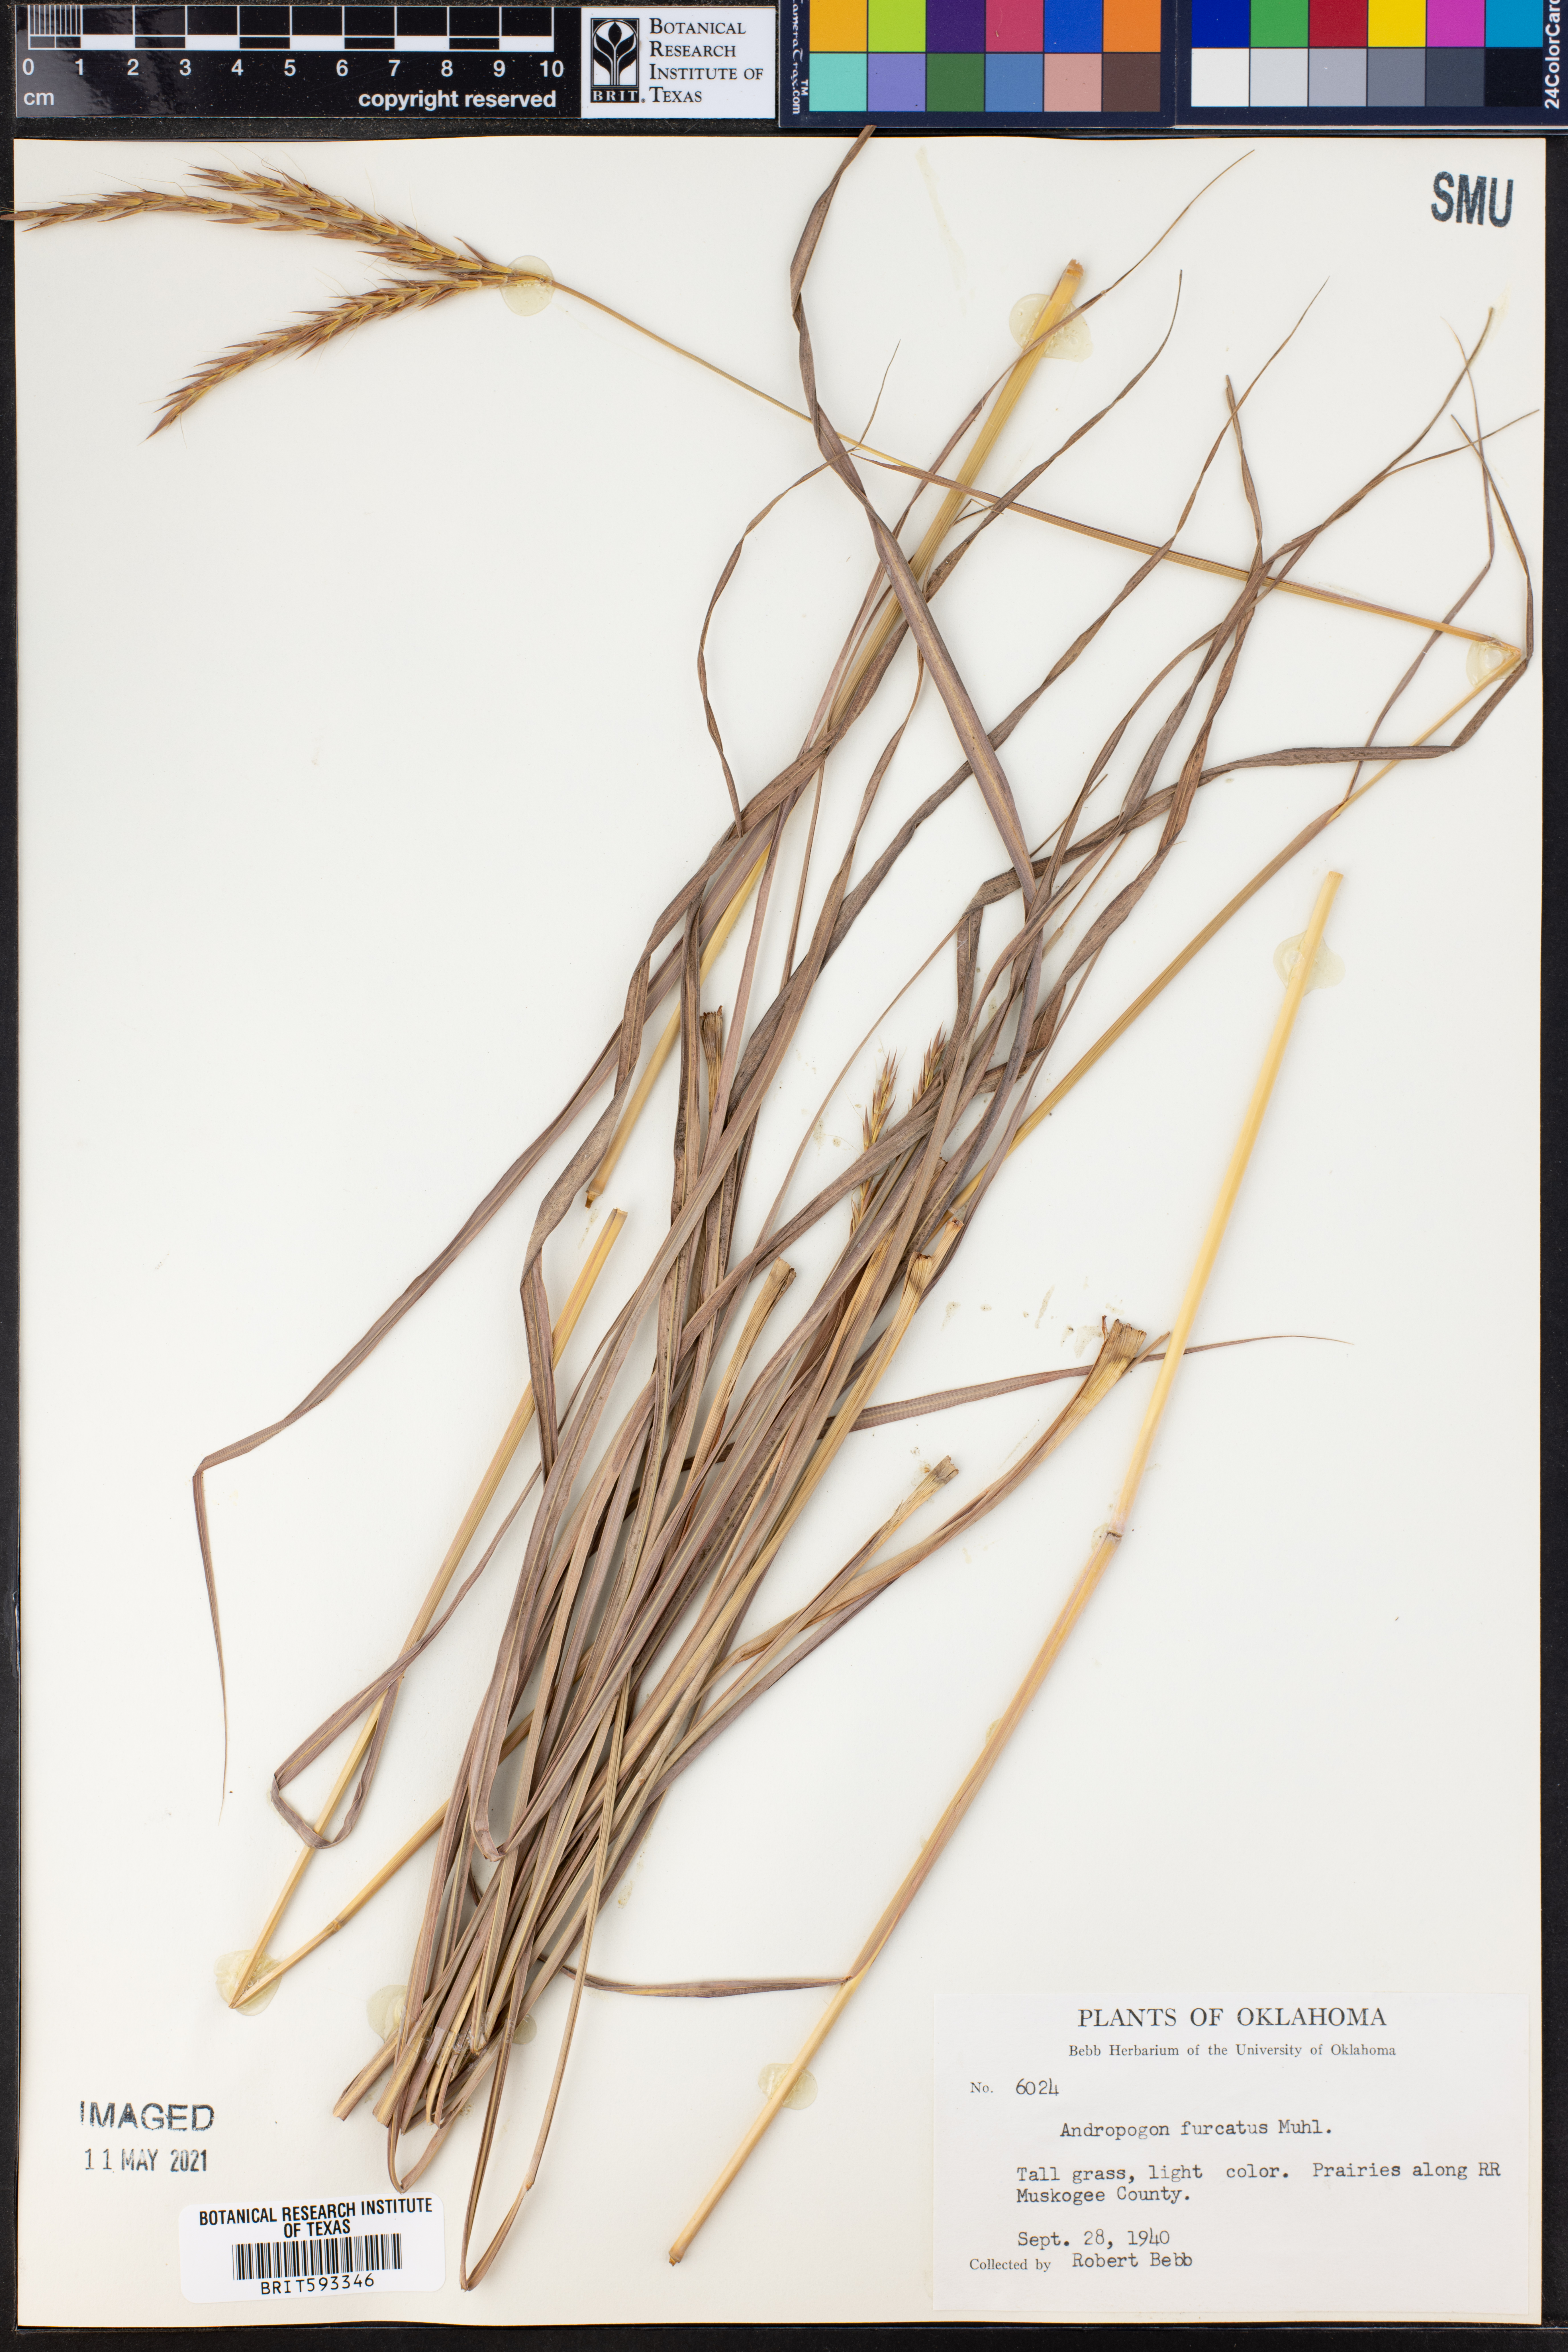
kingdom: Plantae
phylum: Tracheophyta
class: Liliopsida
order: Poales
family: Poaceae
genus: Andropogon
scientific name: Andropogon gerardi
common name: Big bluestem
